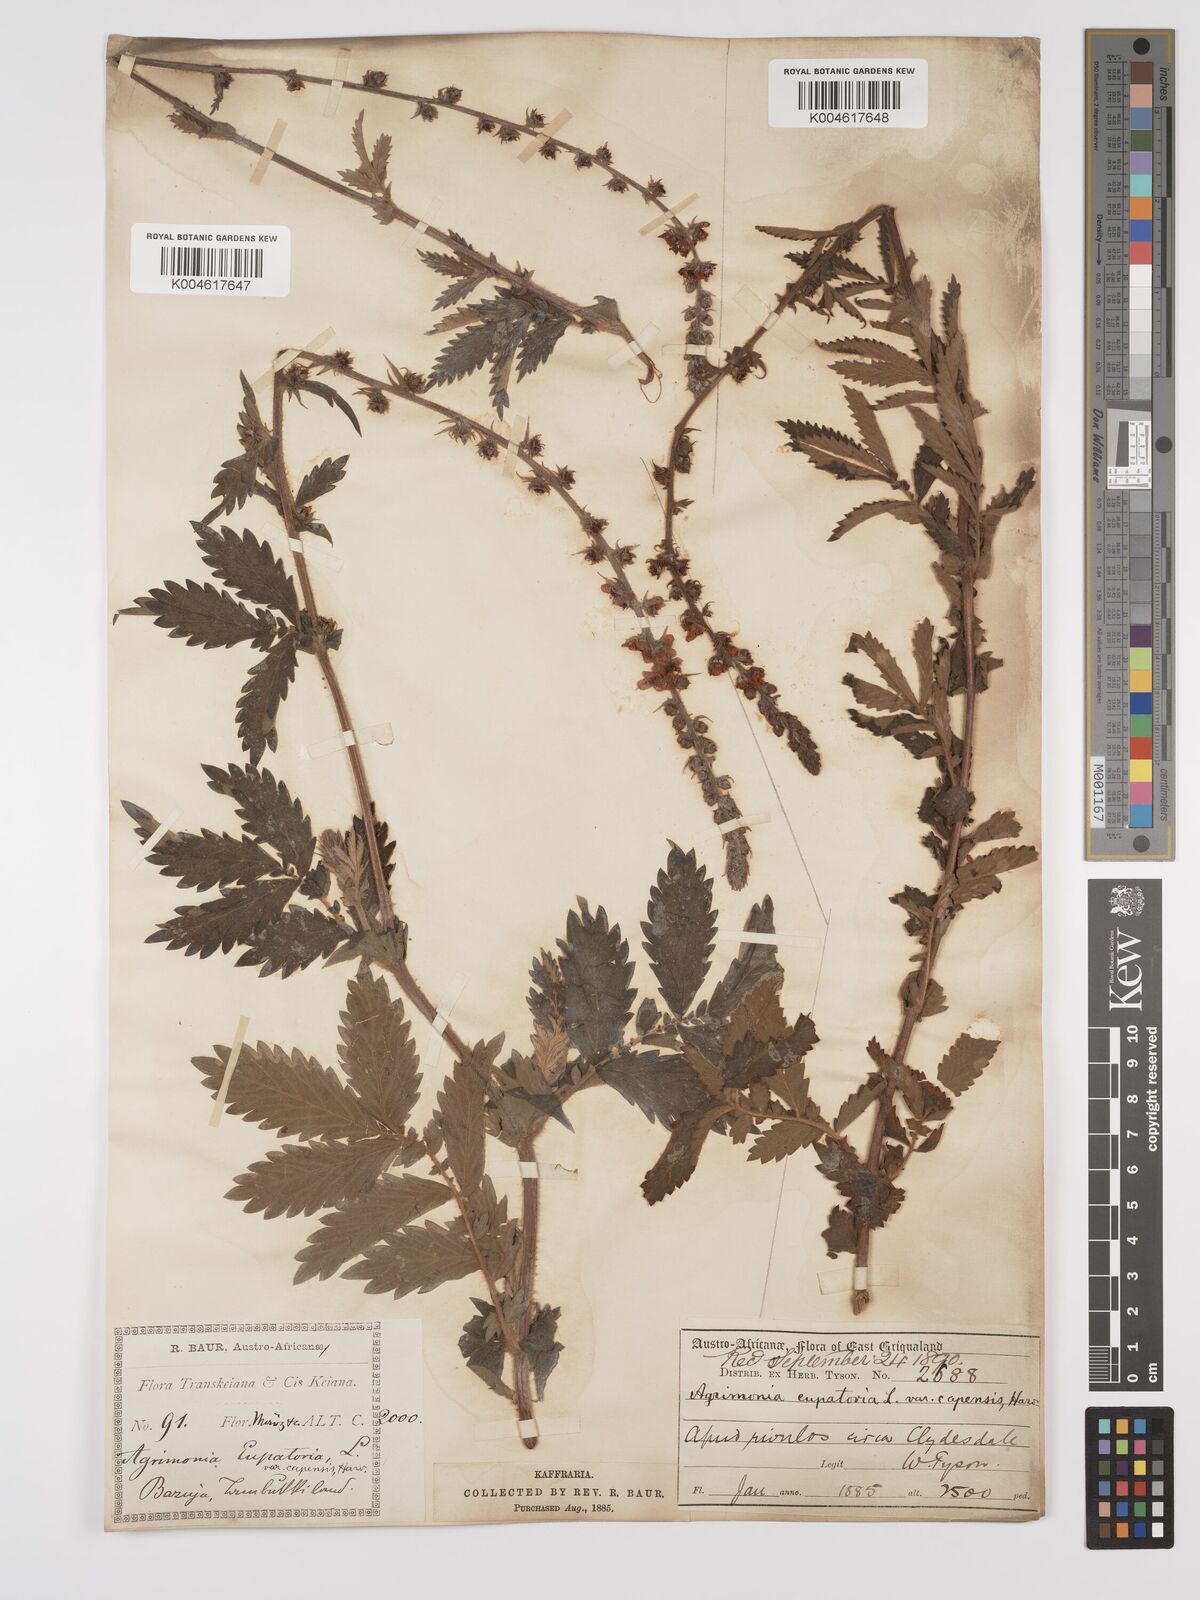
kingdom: Plantae
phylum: Tracheophyta
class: Magnoliopsida
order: Rosales
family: Rosaceae
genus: Agrimonia
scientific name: Agrimonia eupatoria
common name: Agrimony
